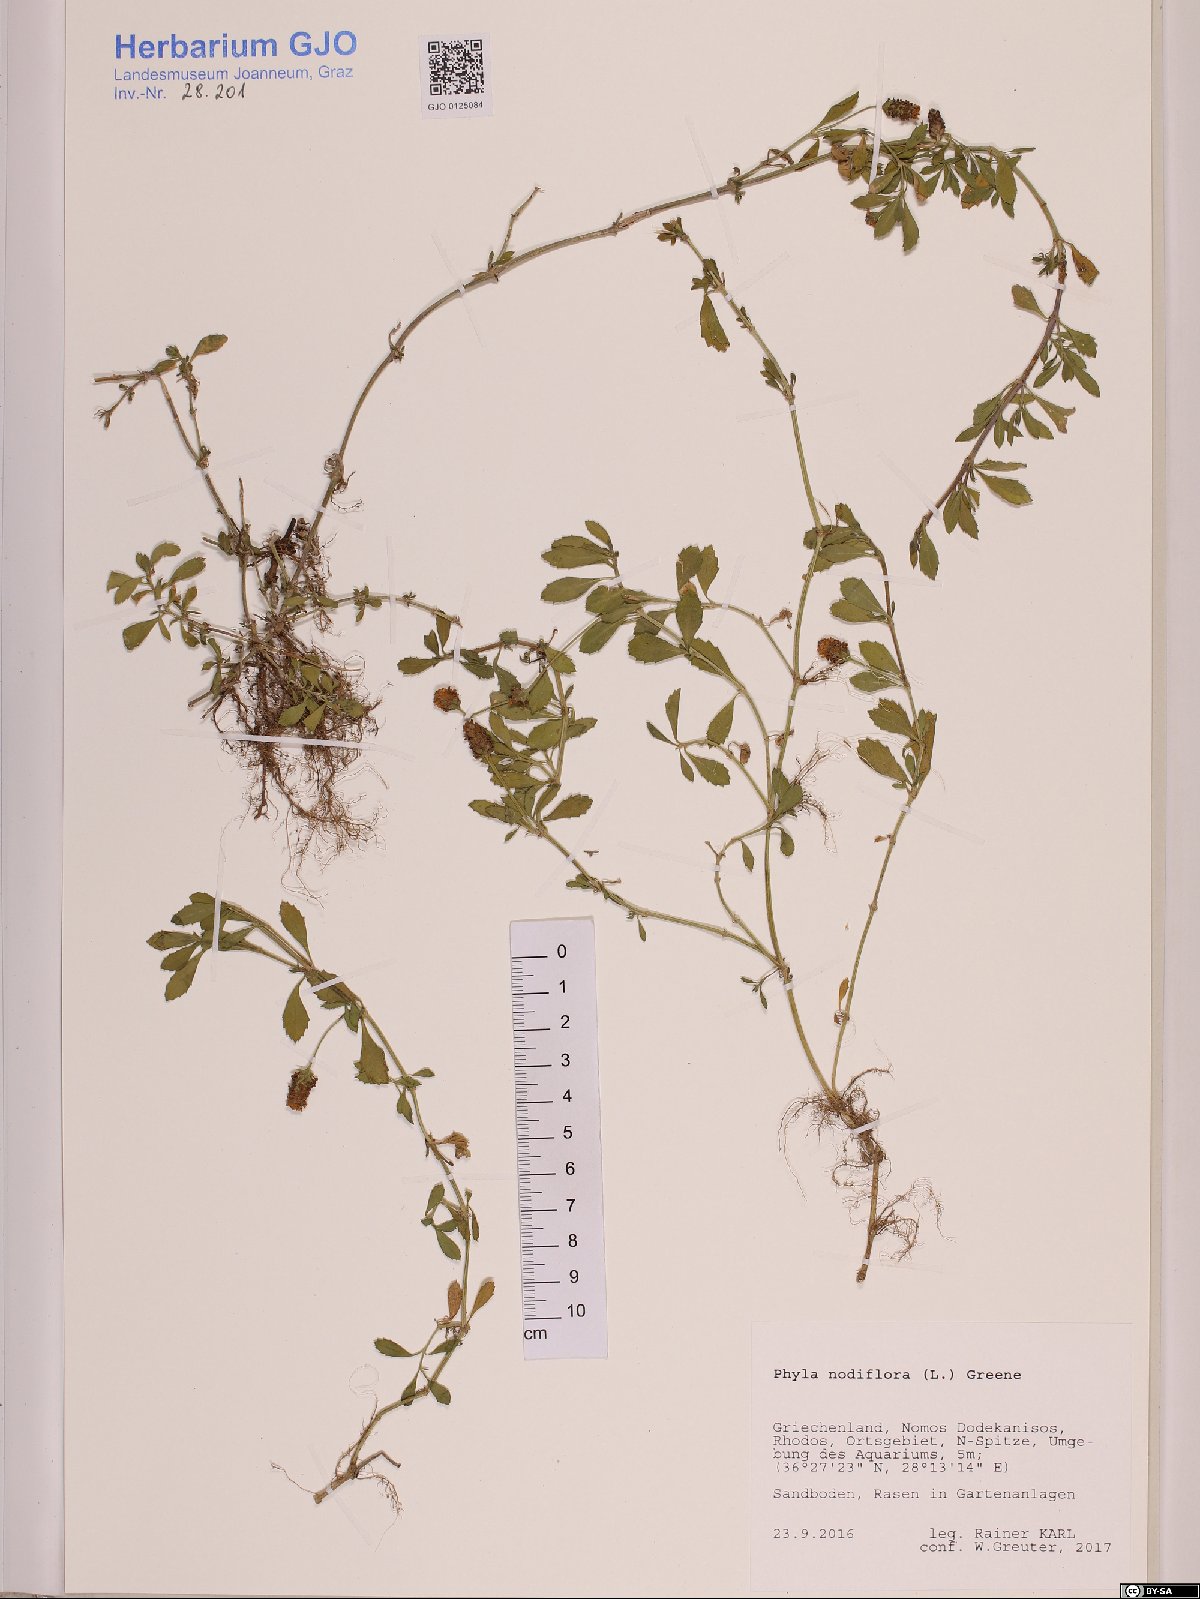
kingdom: Plantae
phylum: Tracheophyta
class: Magnoliopsida
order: Lamiales
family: Verbenaceae
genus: Phyla
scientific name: Phyla nodiflora
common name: Frogfruit
